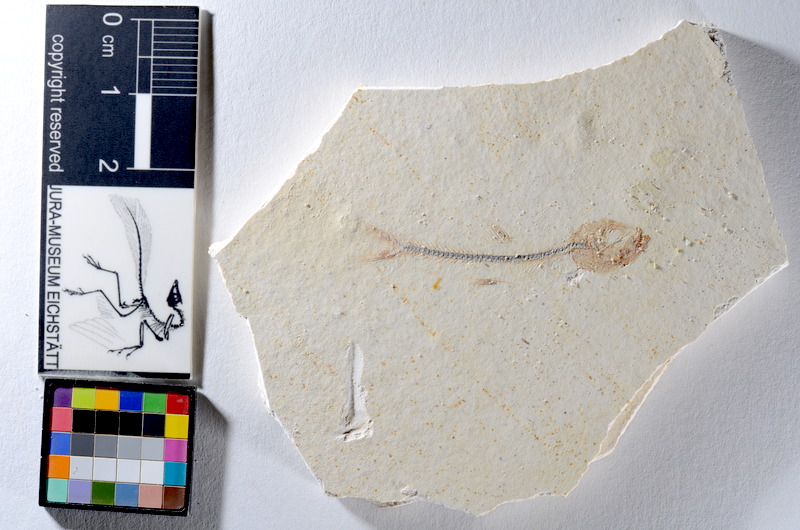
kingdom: Animalia
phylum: Chordata
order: Salmoniformes
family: Orthogonikleithridae
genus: Orthogonikleithrus
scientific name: Orthogonikleithrus hoelli
